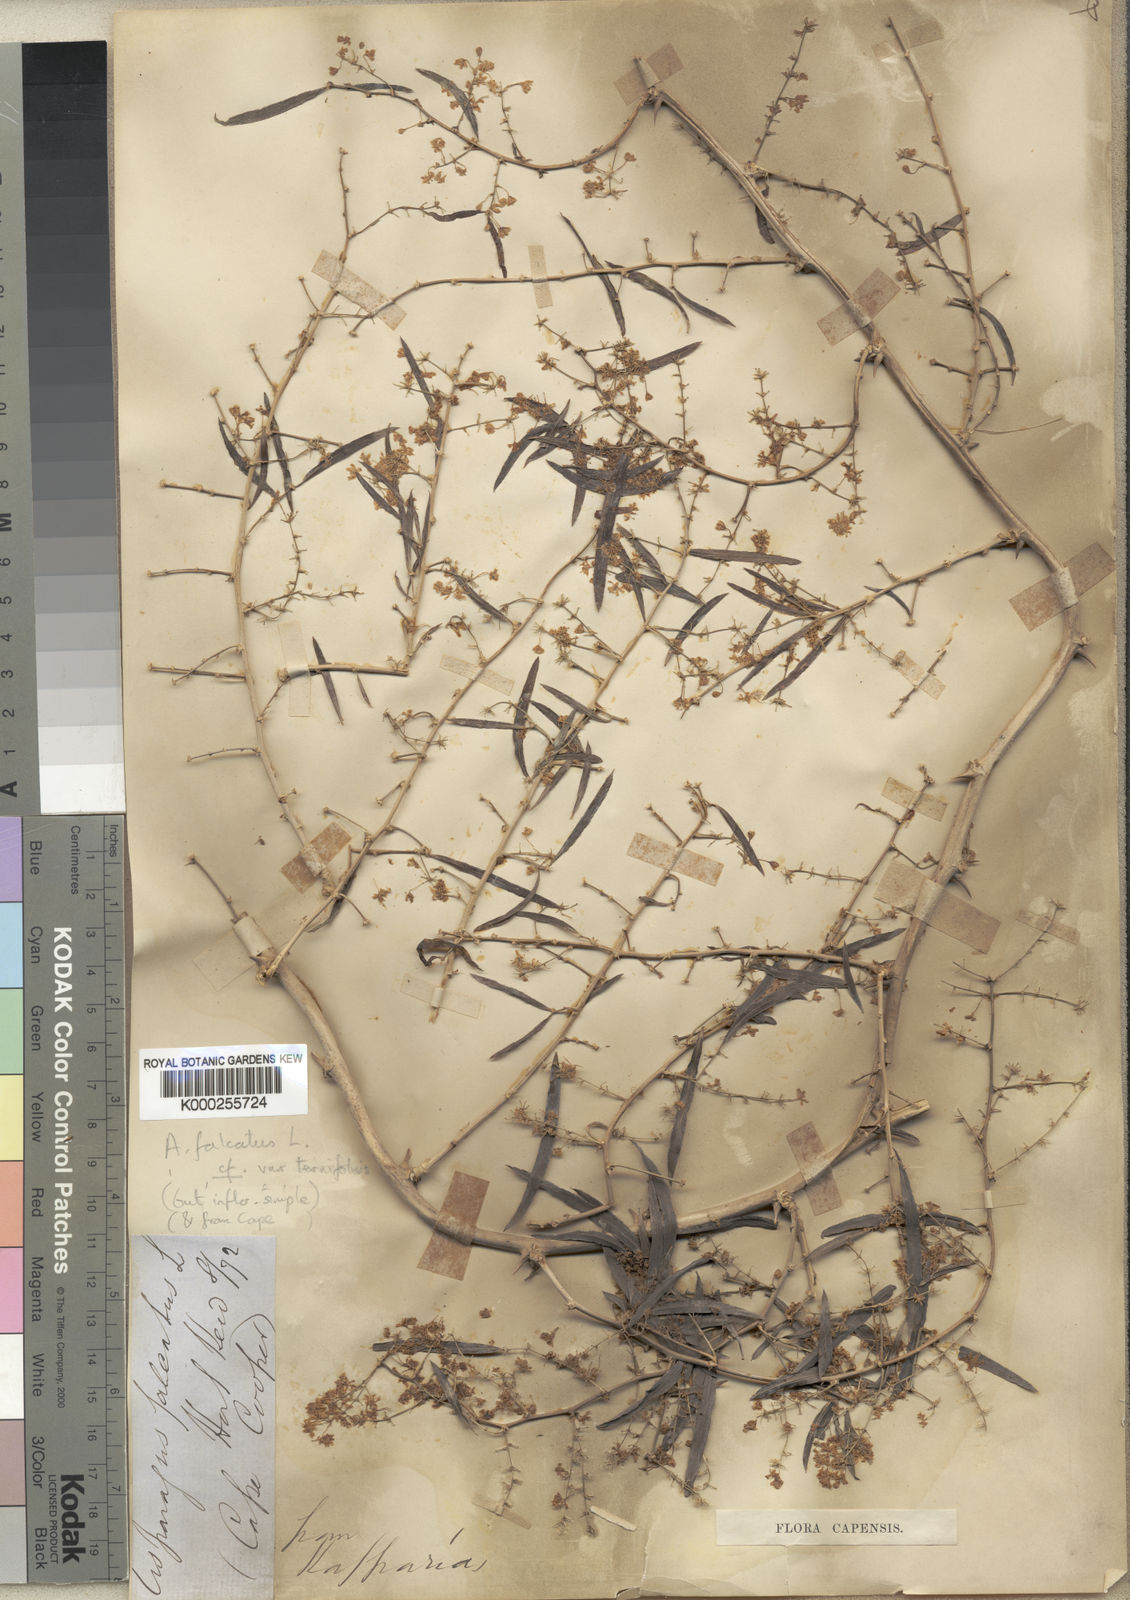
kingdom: Plantae
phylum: Tracheophyta
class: Liliopsida
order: Asparagales
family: Asparagaceae
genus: Asparagus
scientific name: Asparagus falcatus
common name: Asparagus
